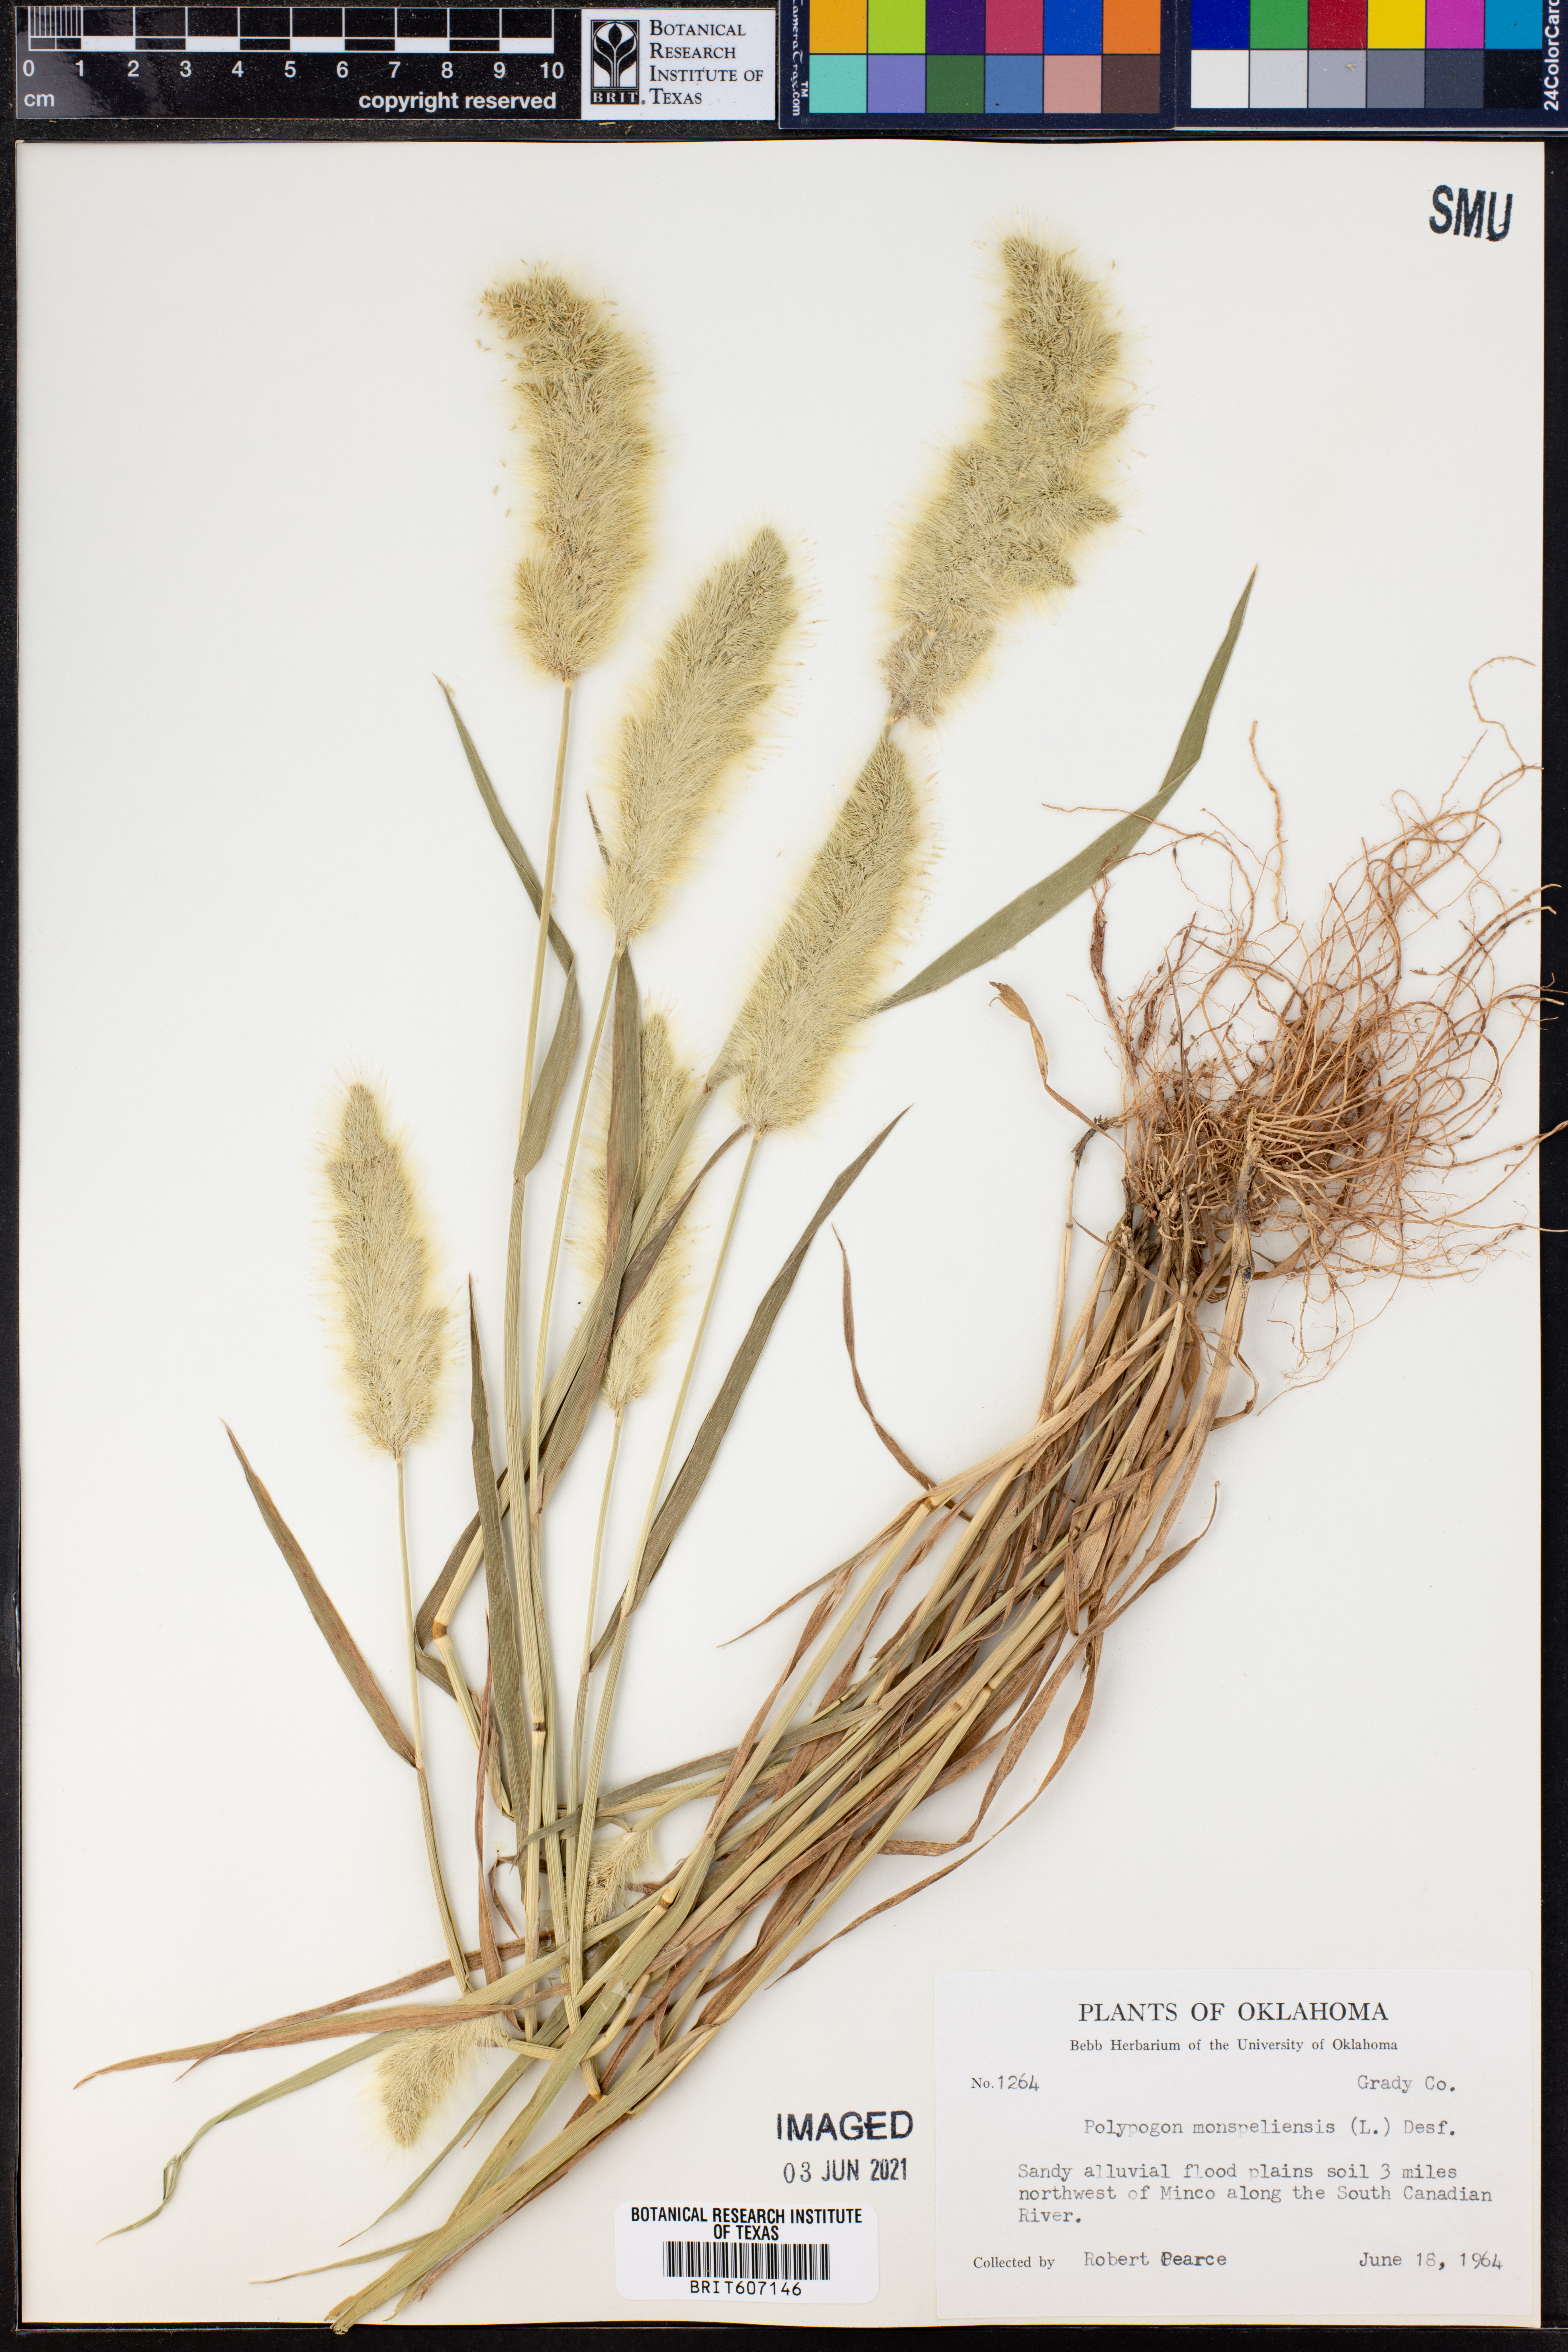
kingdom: Plantae
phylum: Tracheophyta
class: Liliopsida
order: Poales
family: Poaceae
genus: Polypogon
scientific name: Polypogon monspeliensis
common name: Annual rabbitsfoot grass
